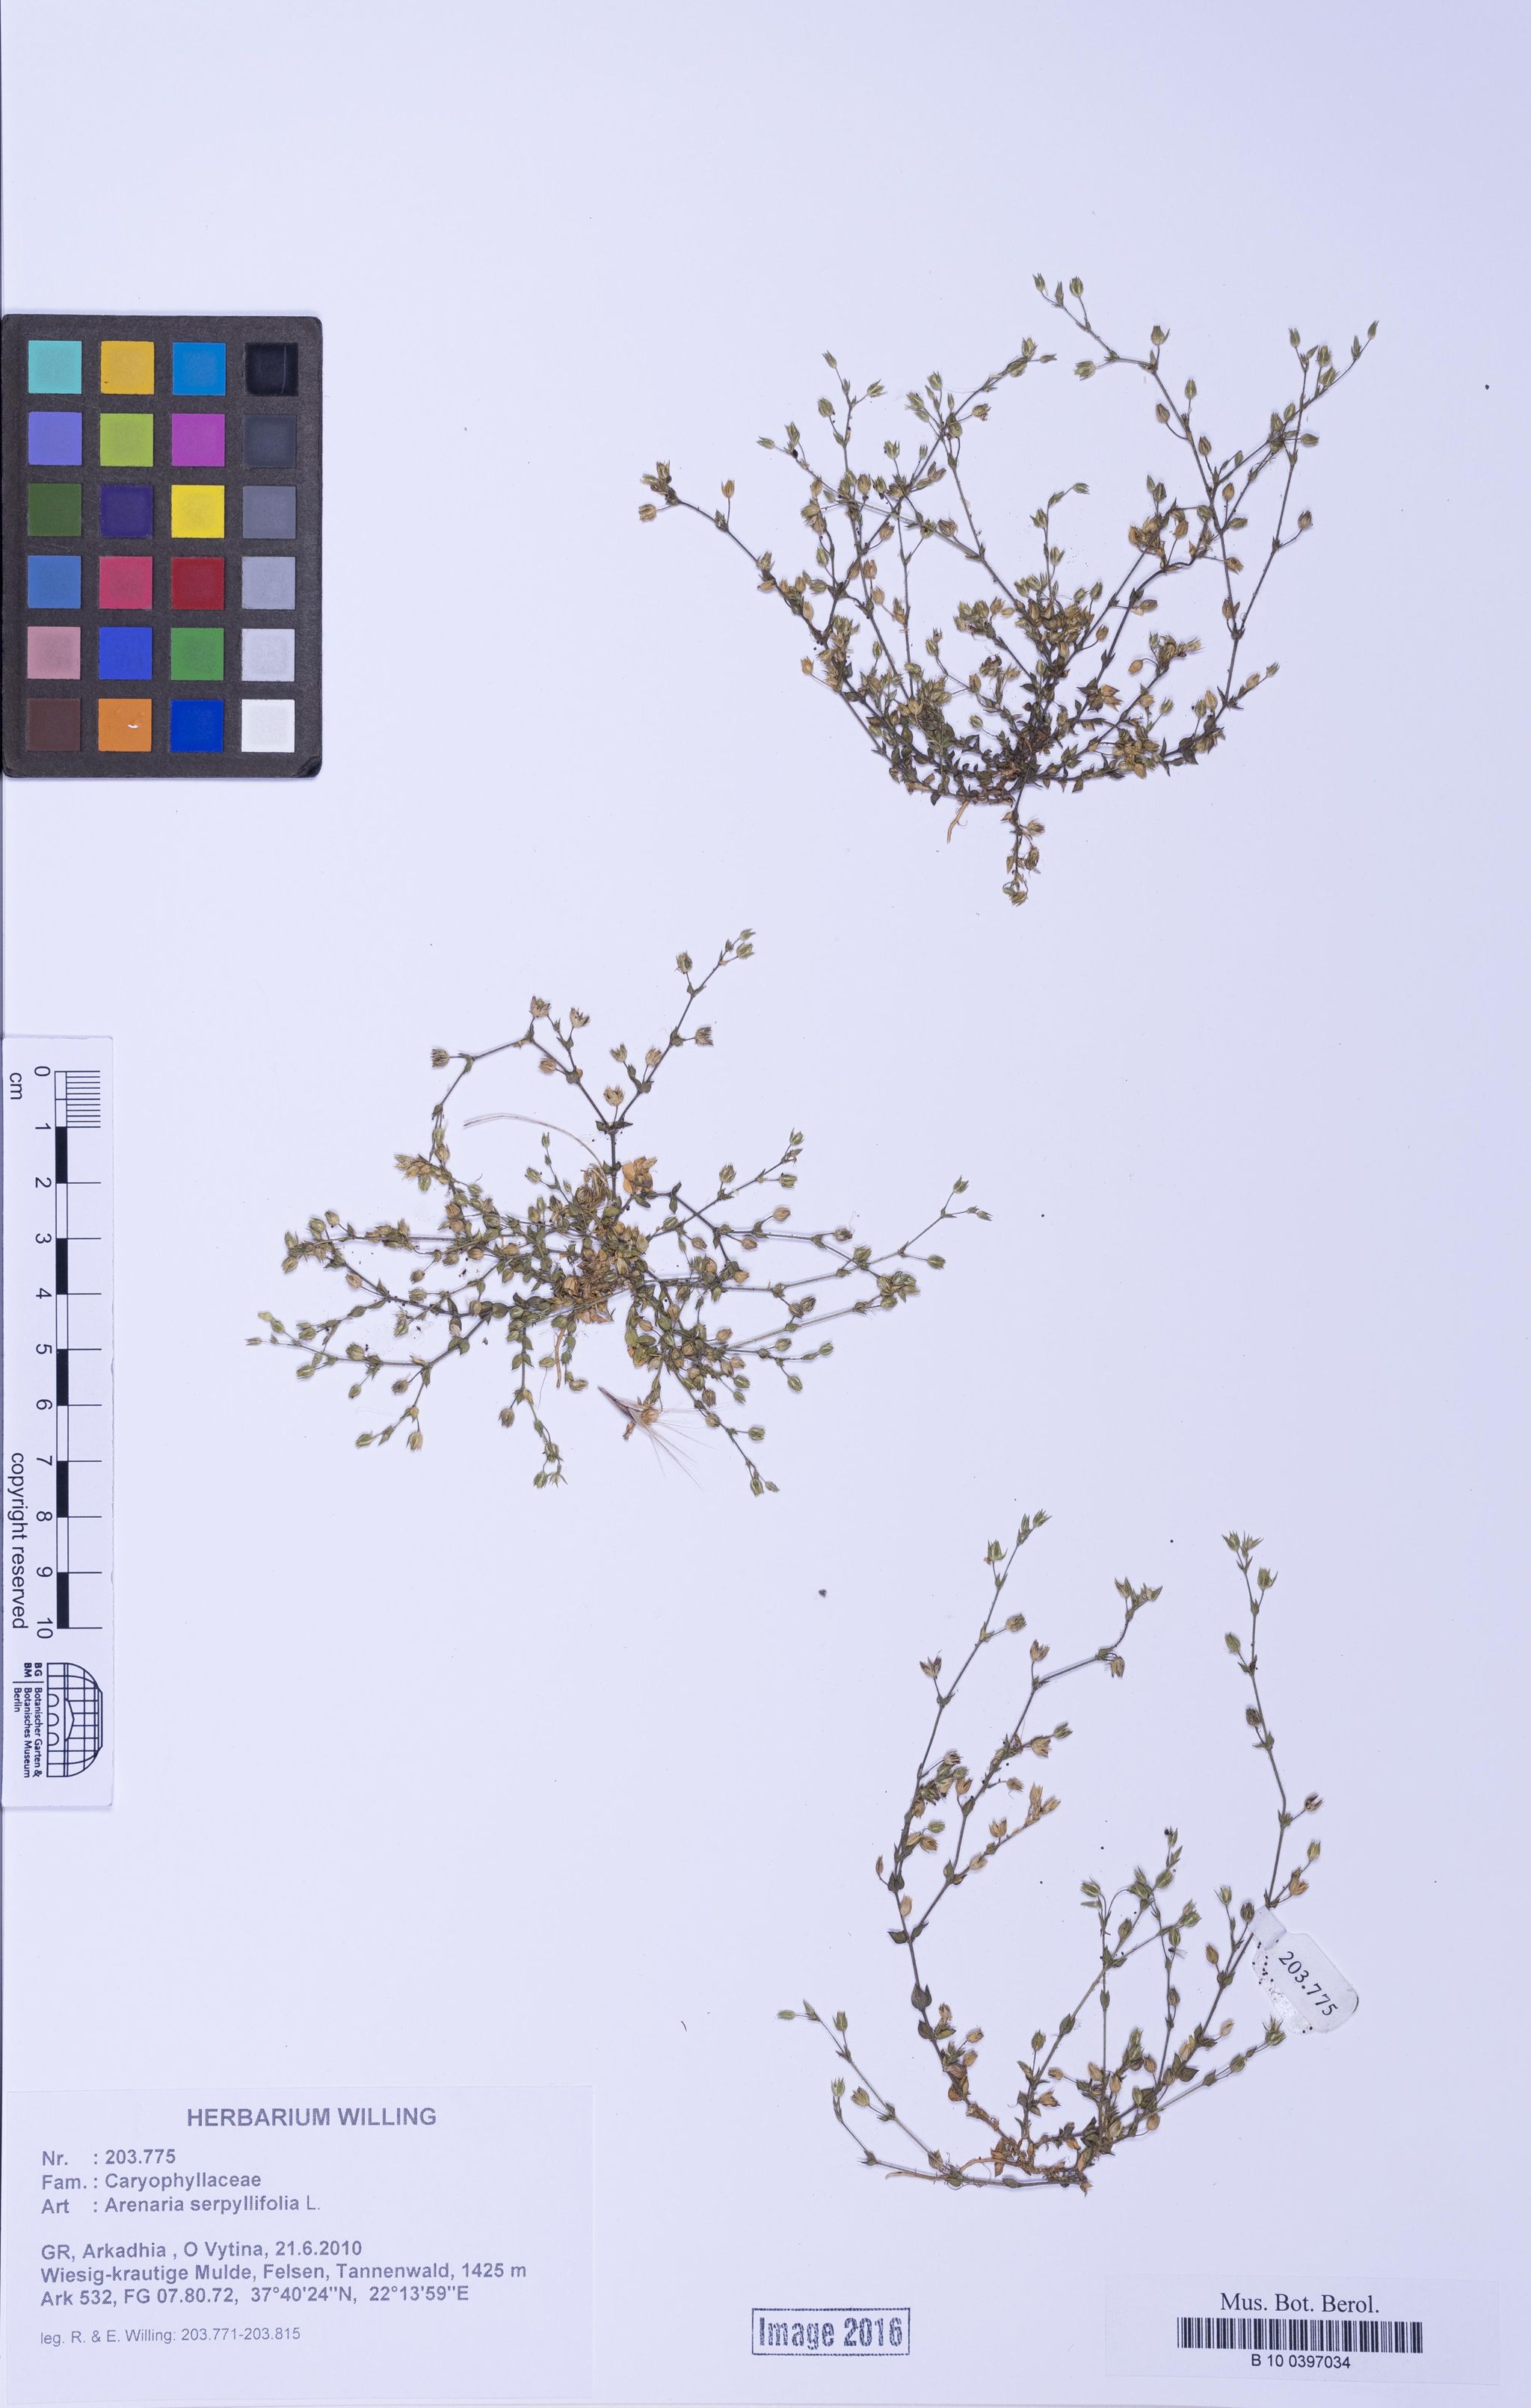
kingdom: Plantae
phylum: Tracheophyta
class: Magnoliopsida
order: Caryophyllales
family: Caryophyllaceae
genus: Arenaria
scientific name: Arenaria serpyllifolia
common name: Thyme-leaved sandwort
